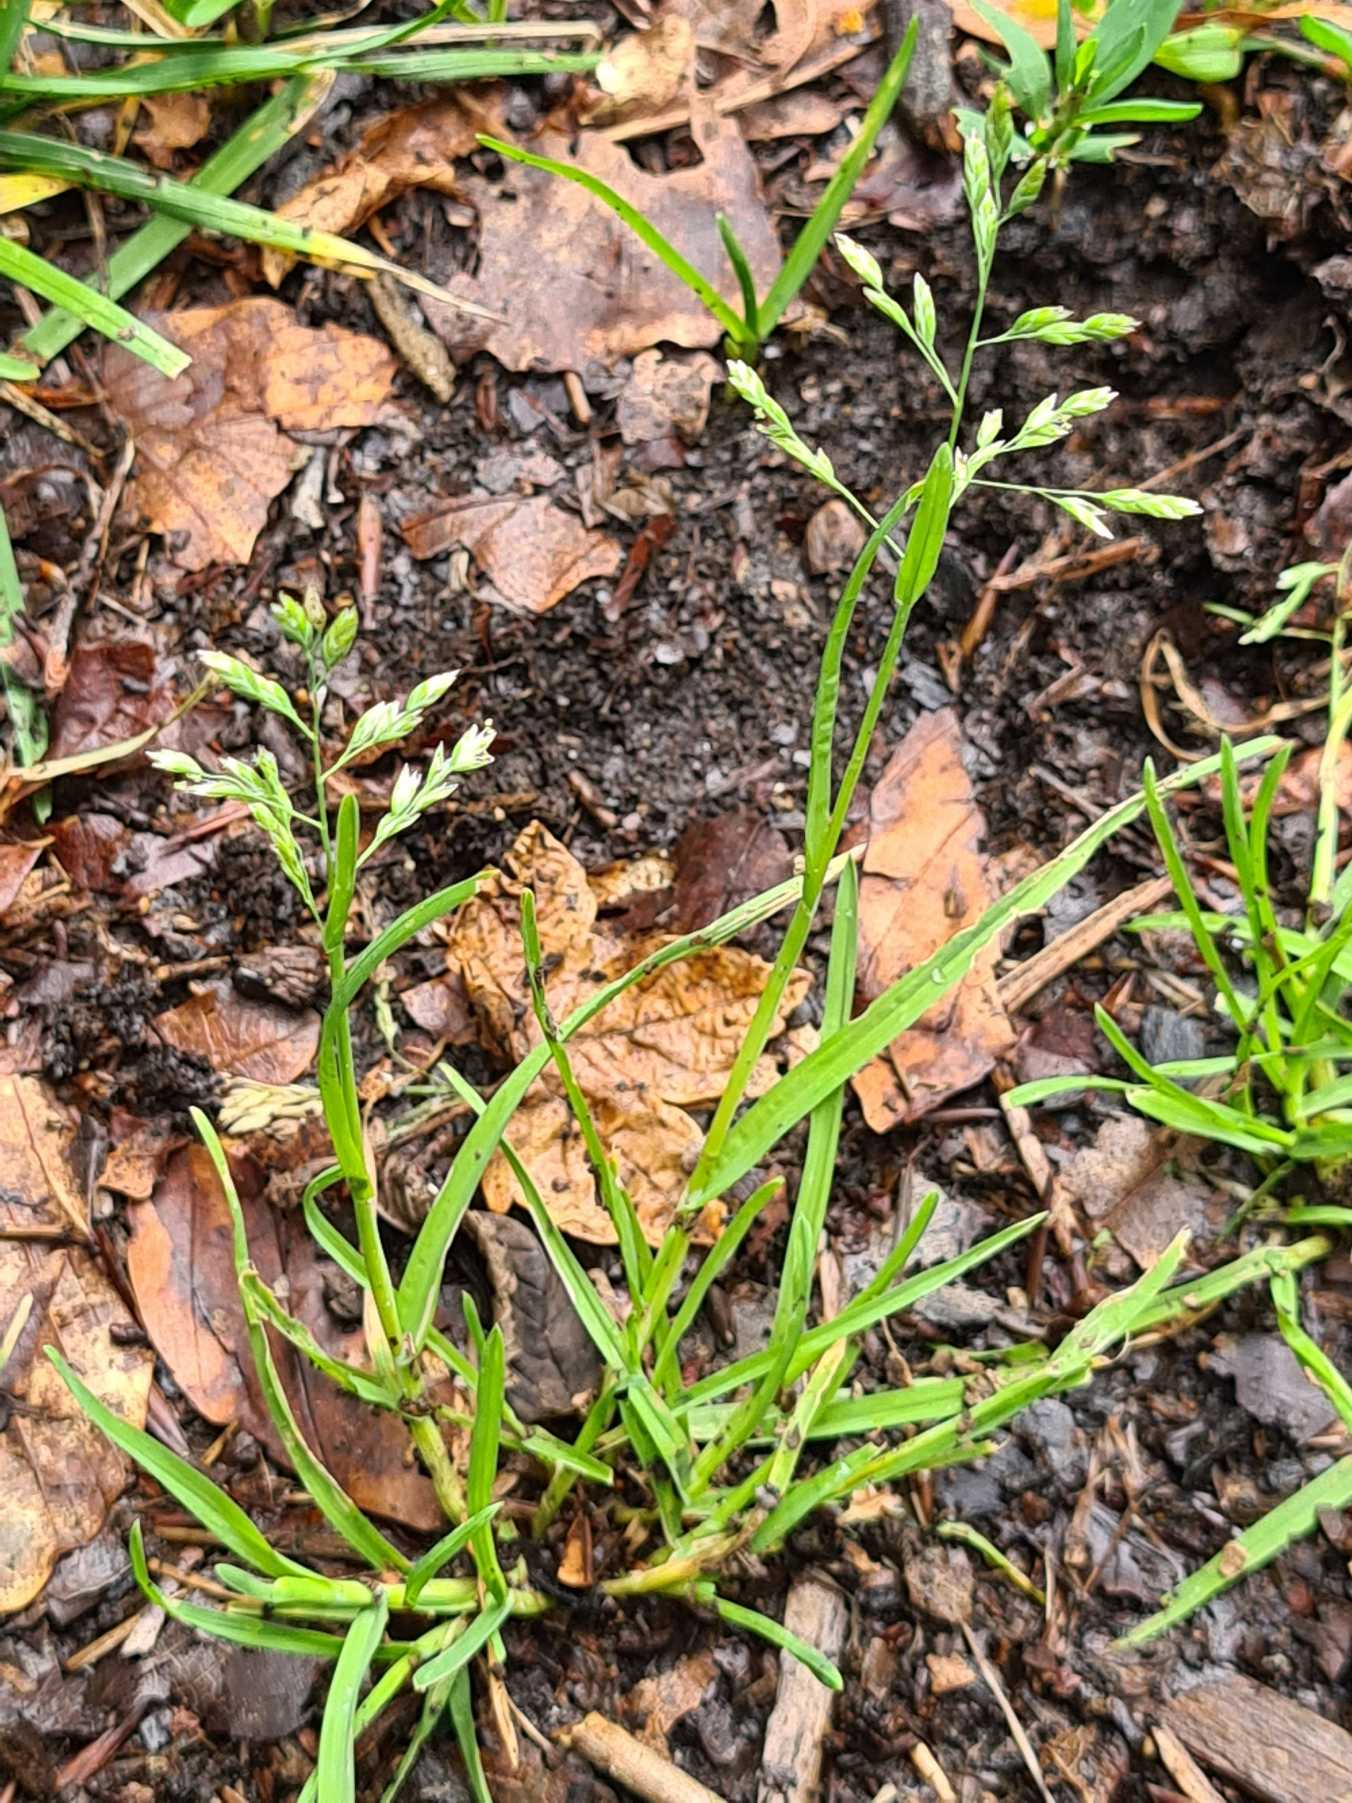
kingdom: Plantae
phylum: Tracheophyta
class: Liliopsida
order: Poales
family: Poaceae
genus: Poa
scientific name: Poa annua
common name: Enårig rapgræs
